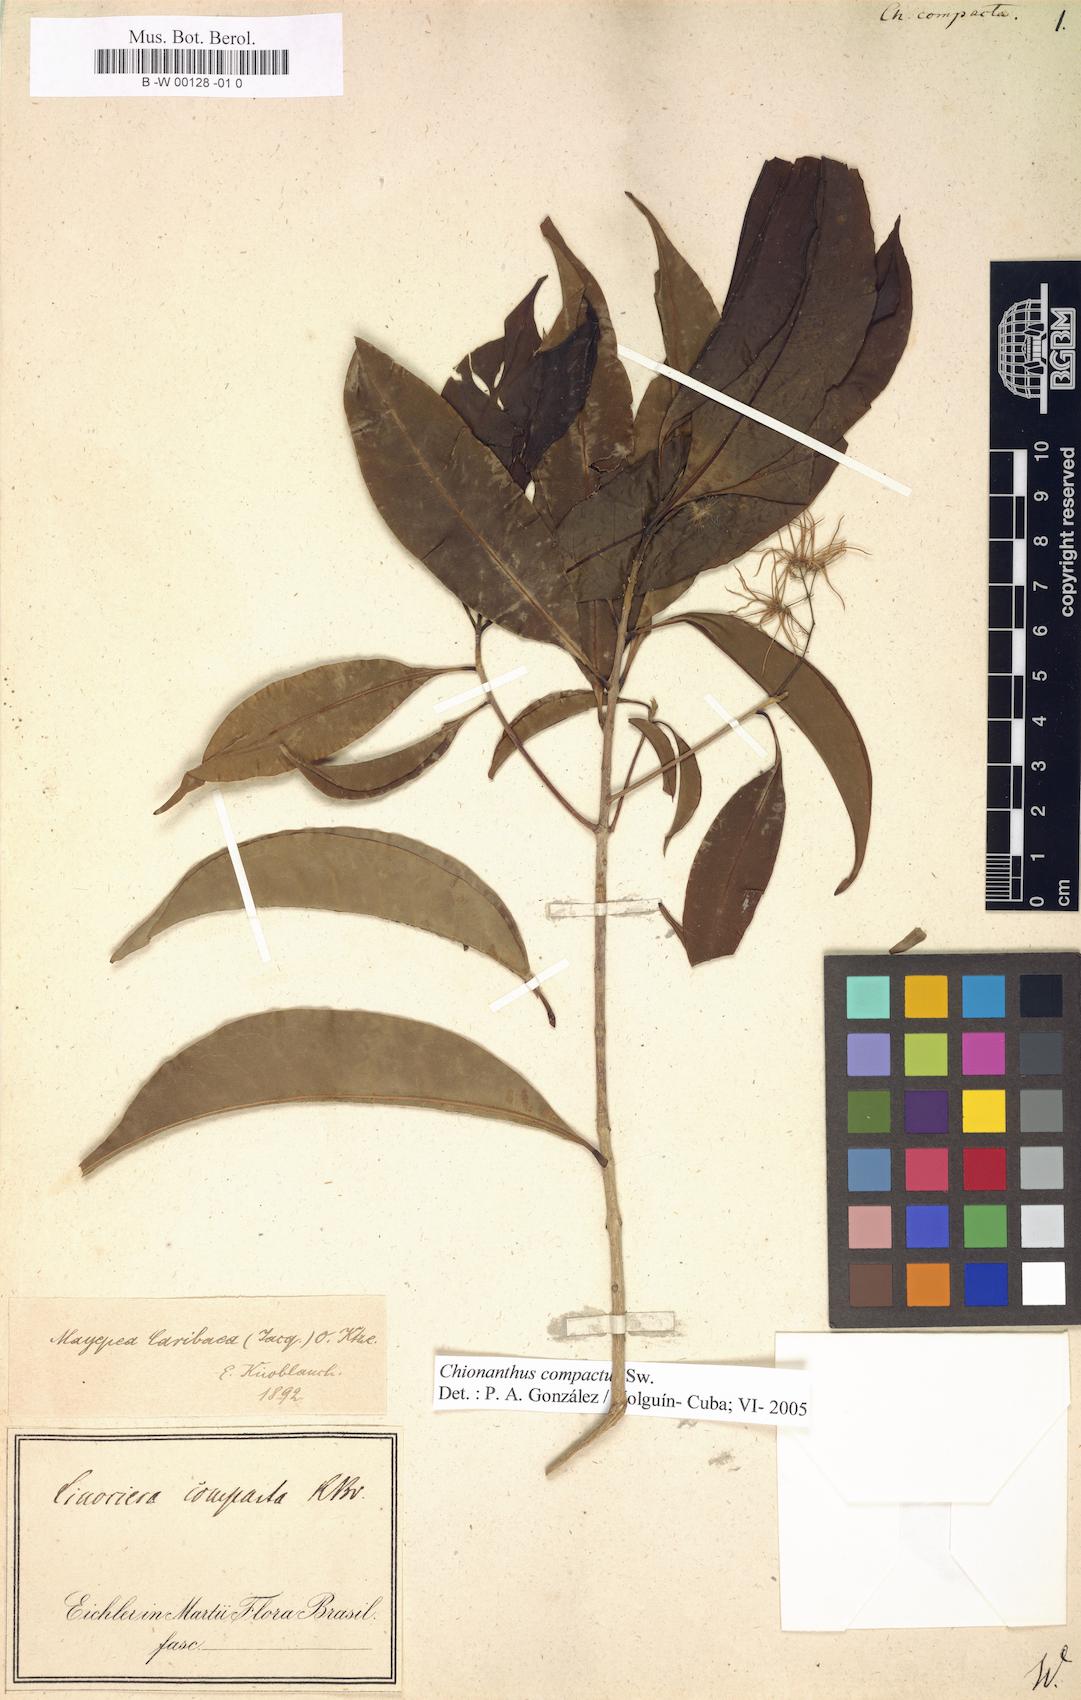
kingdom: Plantae
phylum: Tracheophyta
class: Magnoliopsida
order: Lamiales
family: Oleaceae
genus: Chionanthus
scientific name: Chionanthus compactus
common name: Bridgo tree
